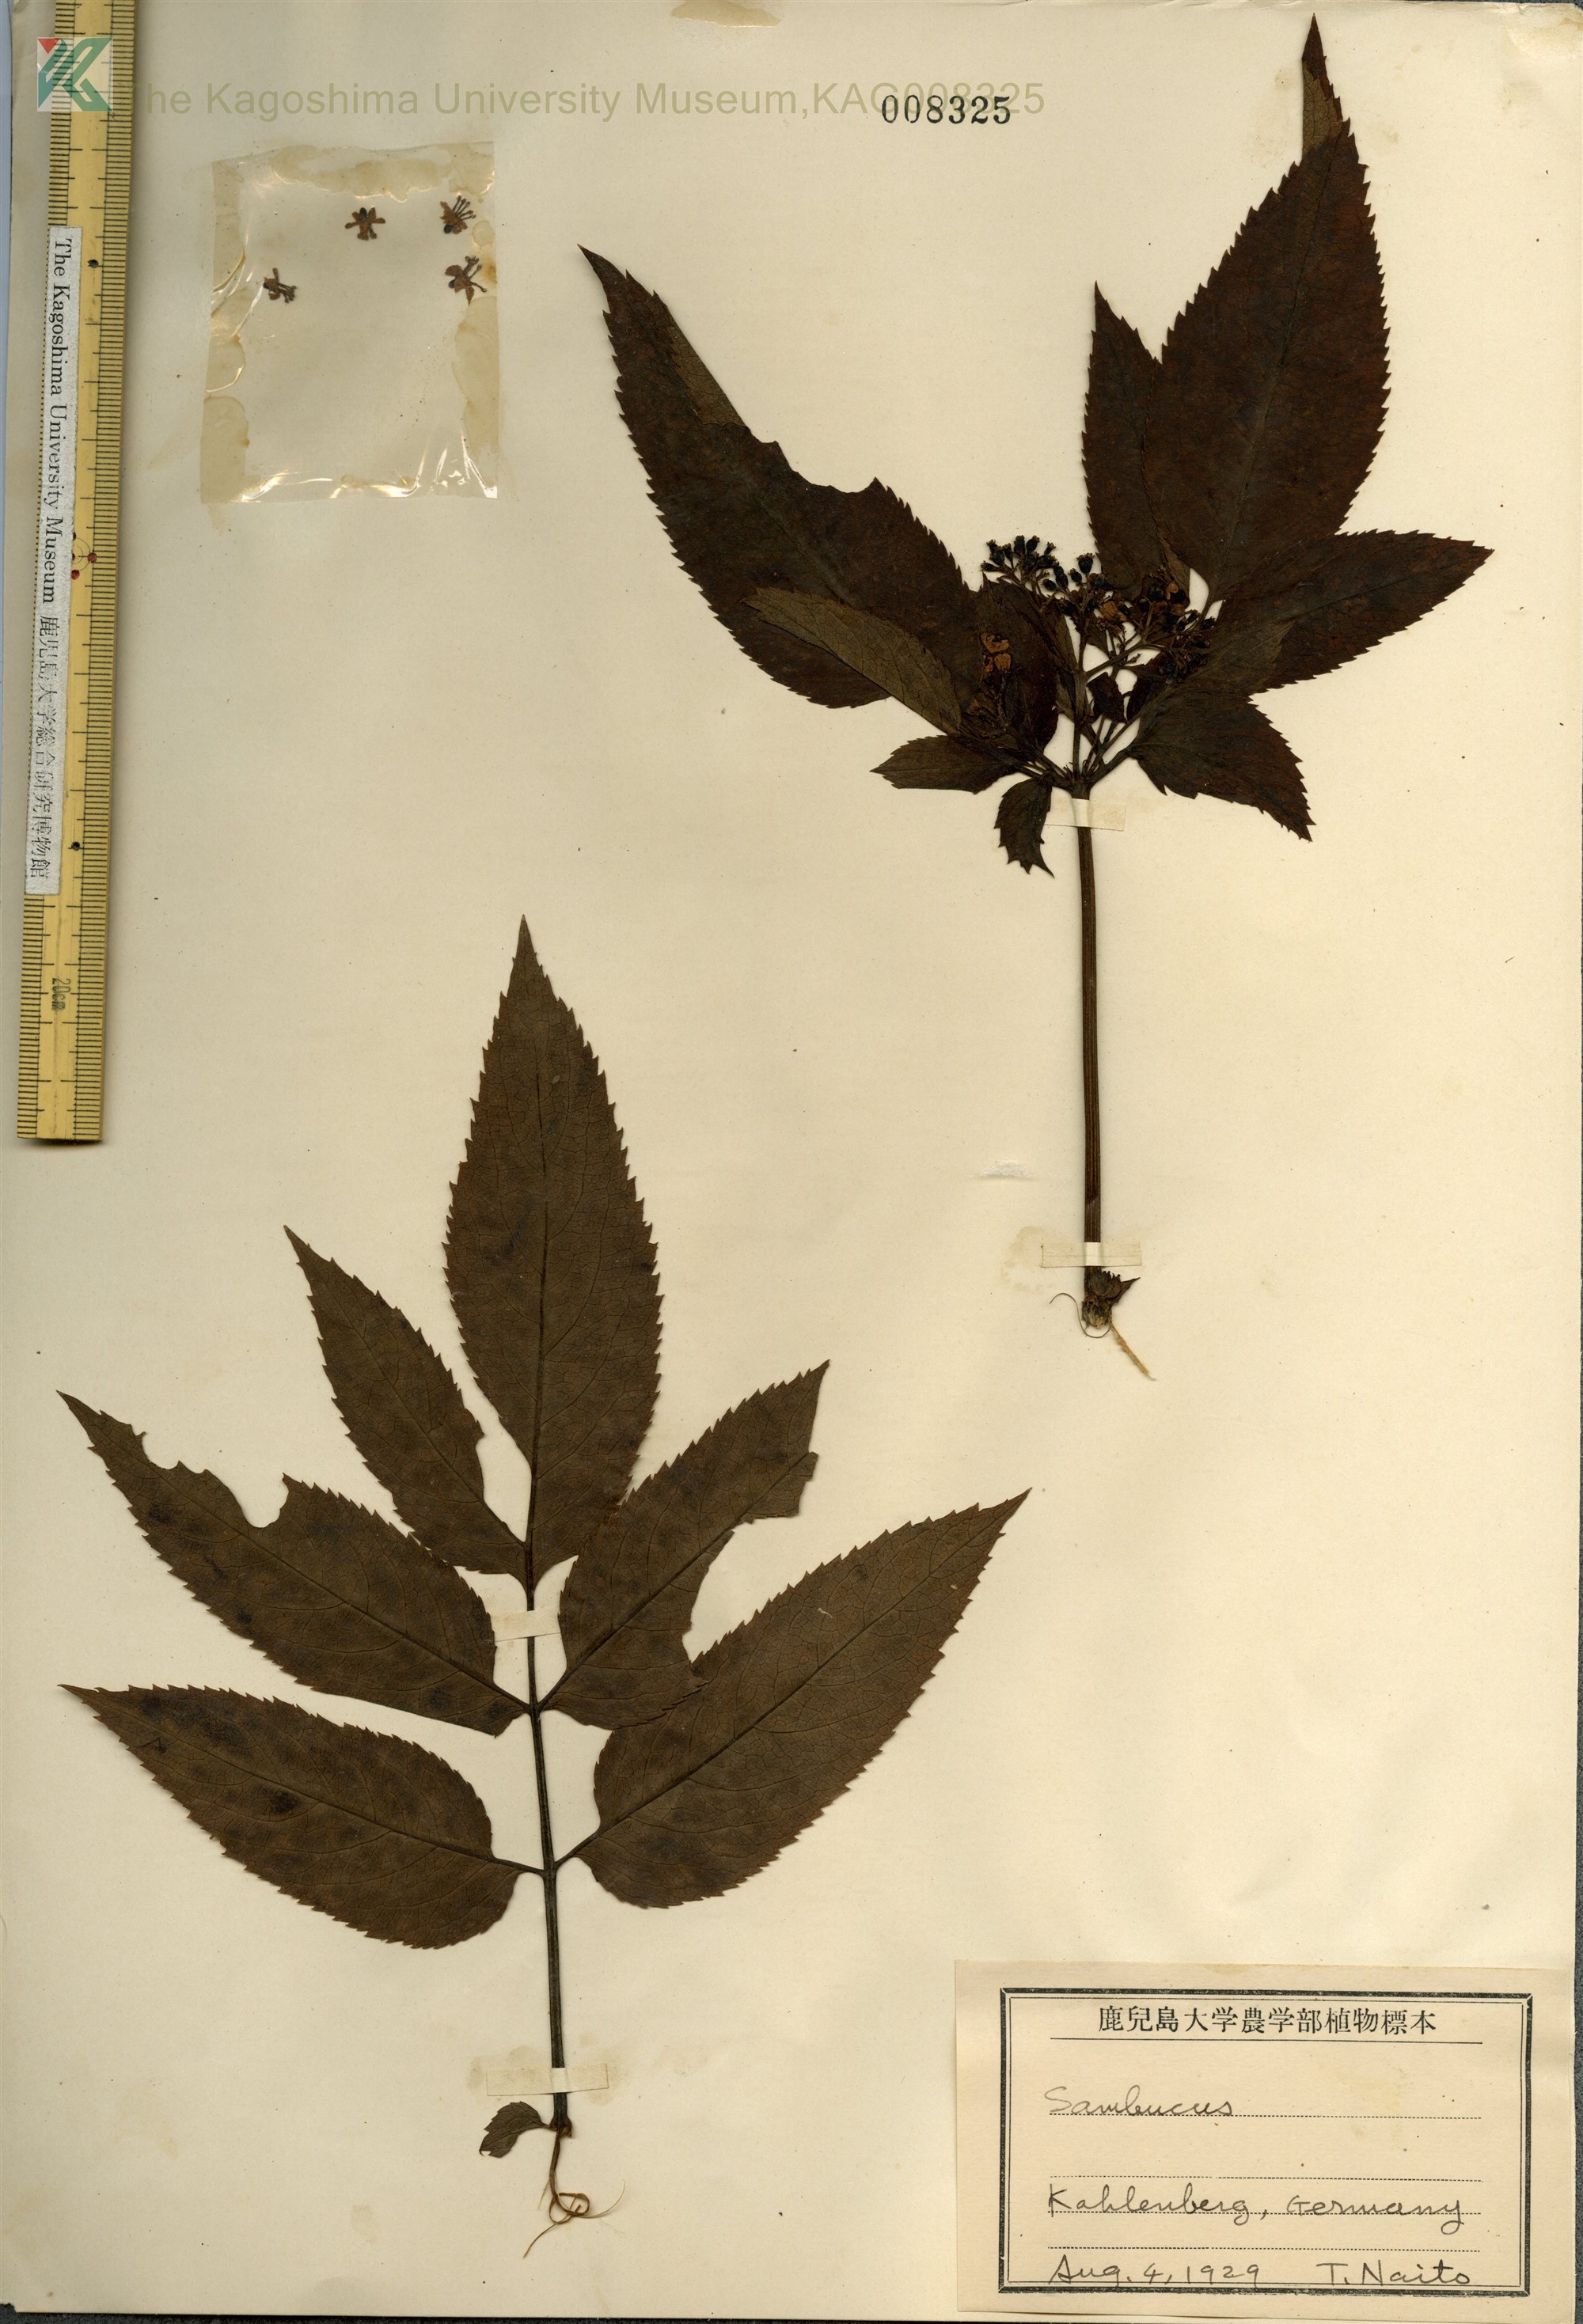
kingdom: Plantae
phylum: Tracheophyta
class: Magnoliopsida
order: Dipsacales
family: Viburnaceae
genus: Sambucus
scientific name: Sambucus racemosa
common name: Red-berried elder
